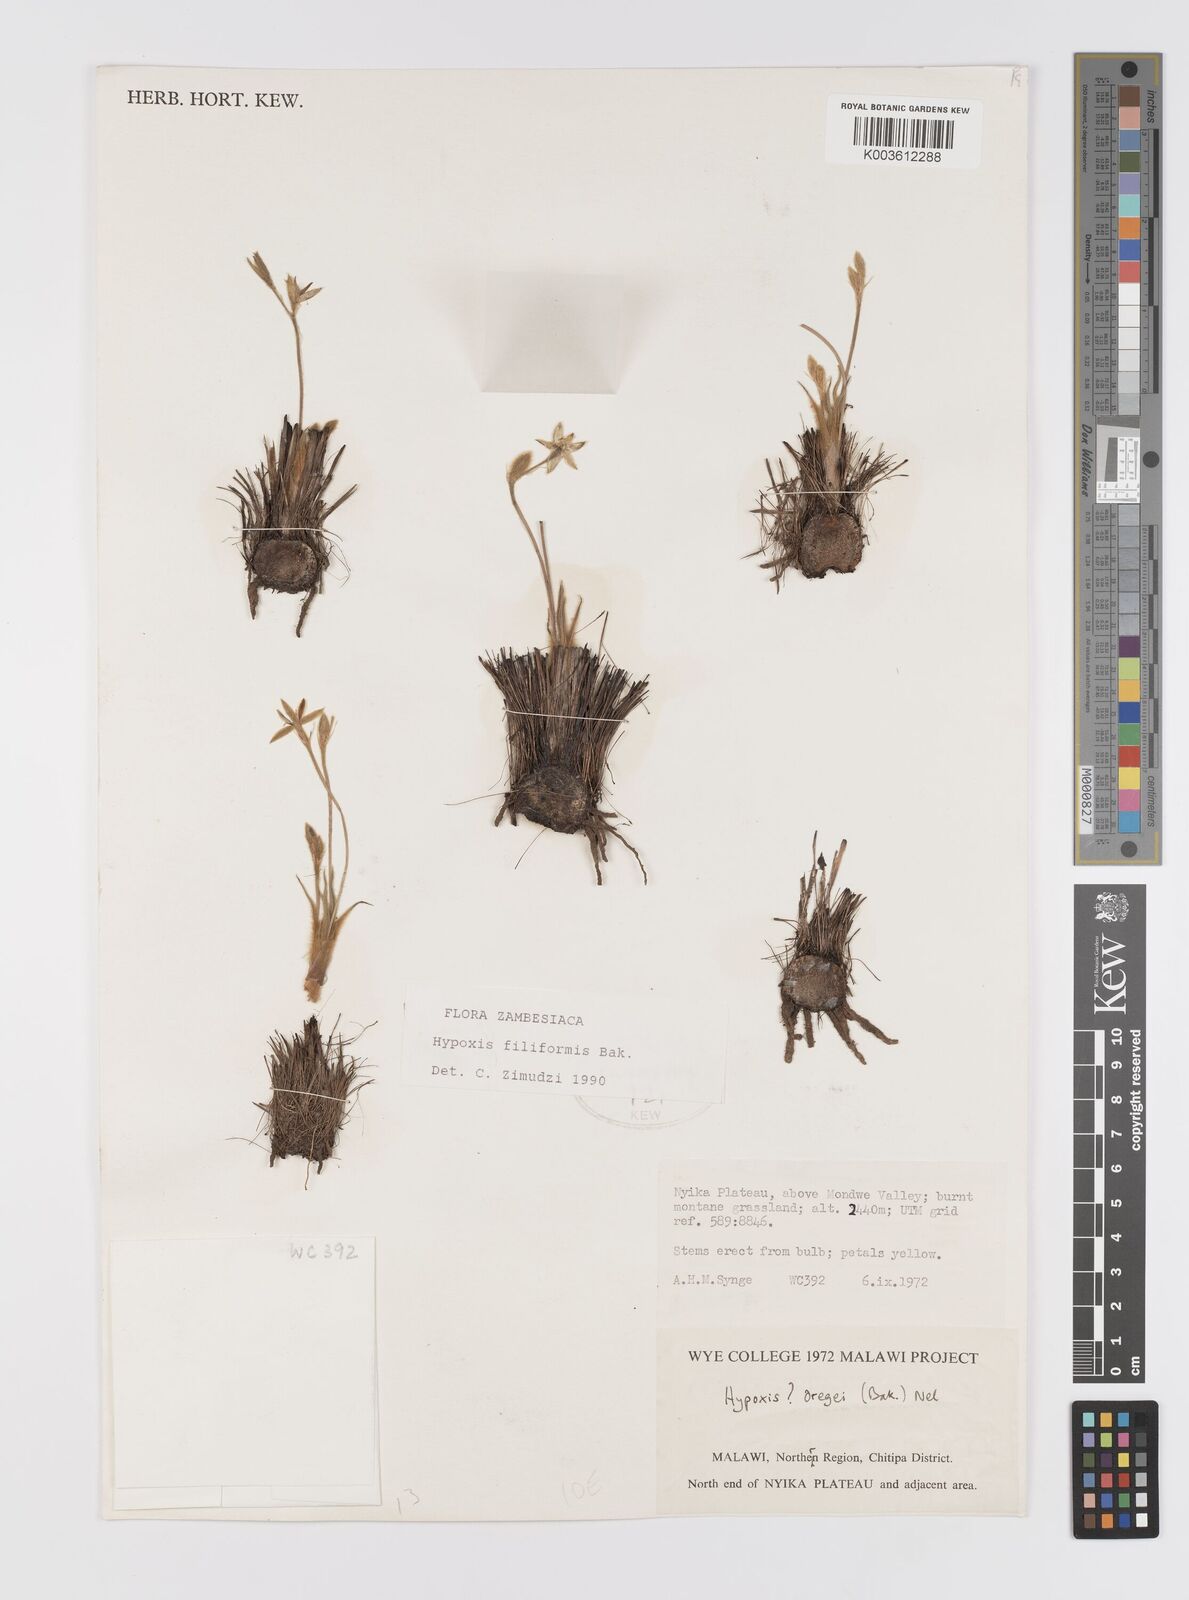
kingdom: Plantae
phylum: Tracheophyta
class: Liliopsida
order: Asparagales
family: Hypoxidaceae
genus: Hypoxis
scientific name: Hypoxis filiformis
